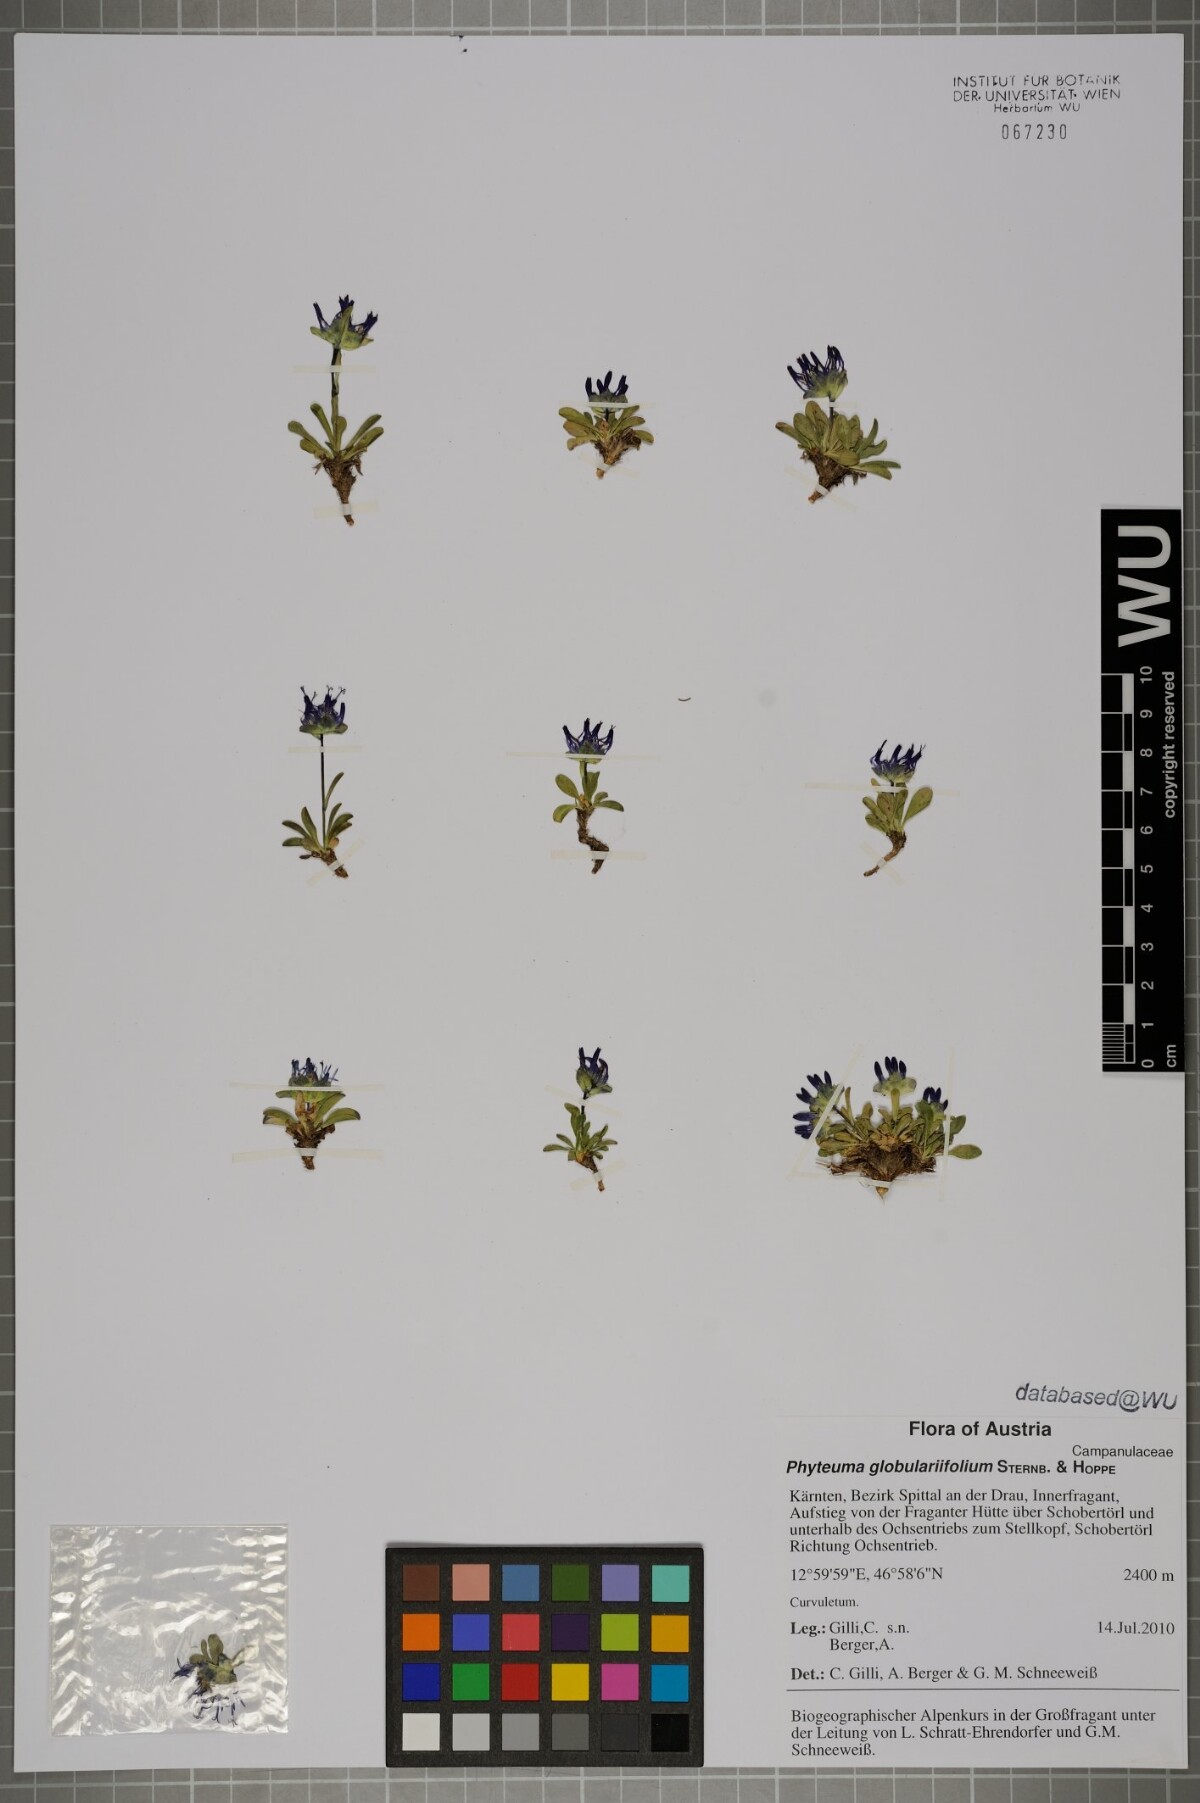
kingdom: Plantae
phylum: Tracheophyta
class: Magnoliopsida
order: Asterales
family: Campanulaceae
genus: Phyteuma
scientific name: Phyteuma globulariifolium
